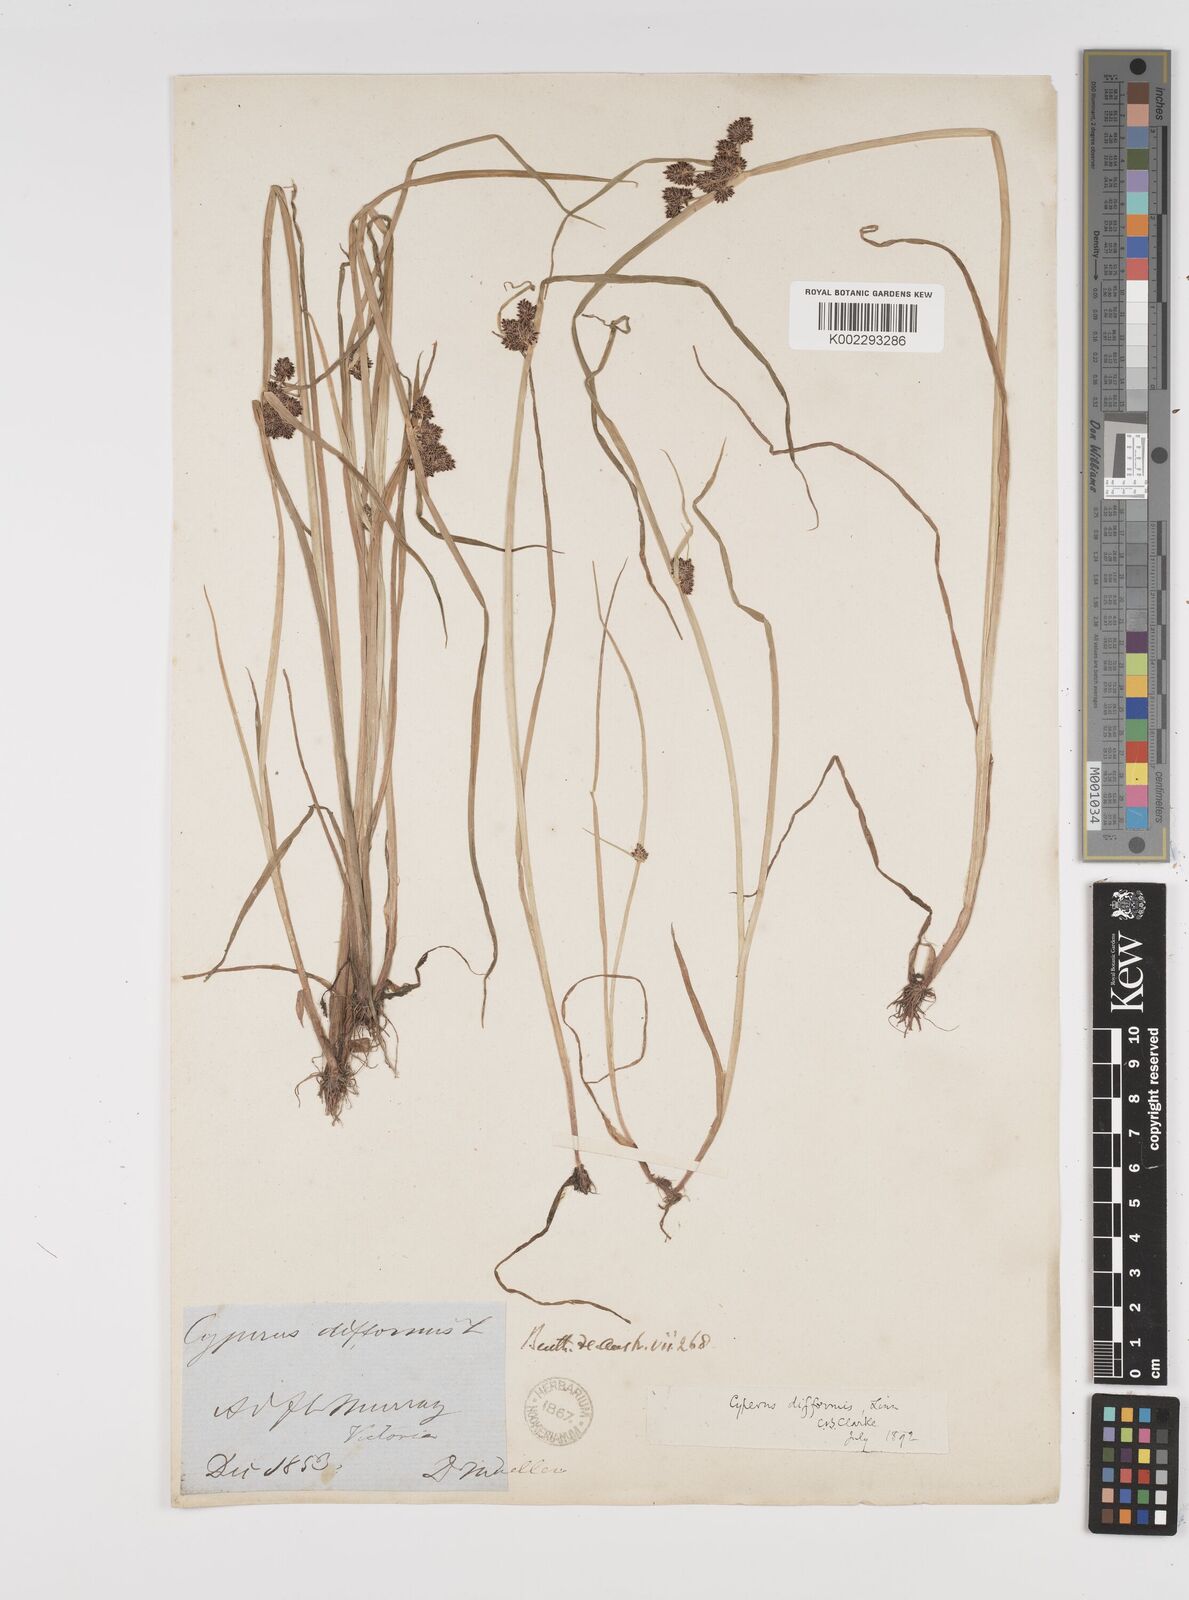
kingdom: Plantae
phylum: Tracheophyta
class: Liliopsida
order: Poales
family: Cyperaceae
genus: Cyperus
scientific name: Cyperus difformis
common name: Variable flatsedge
